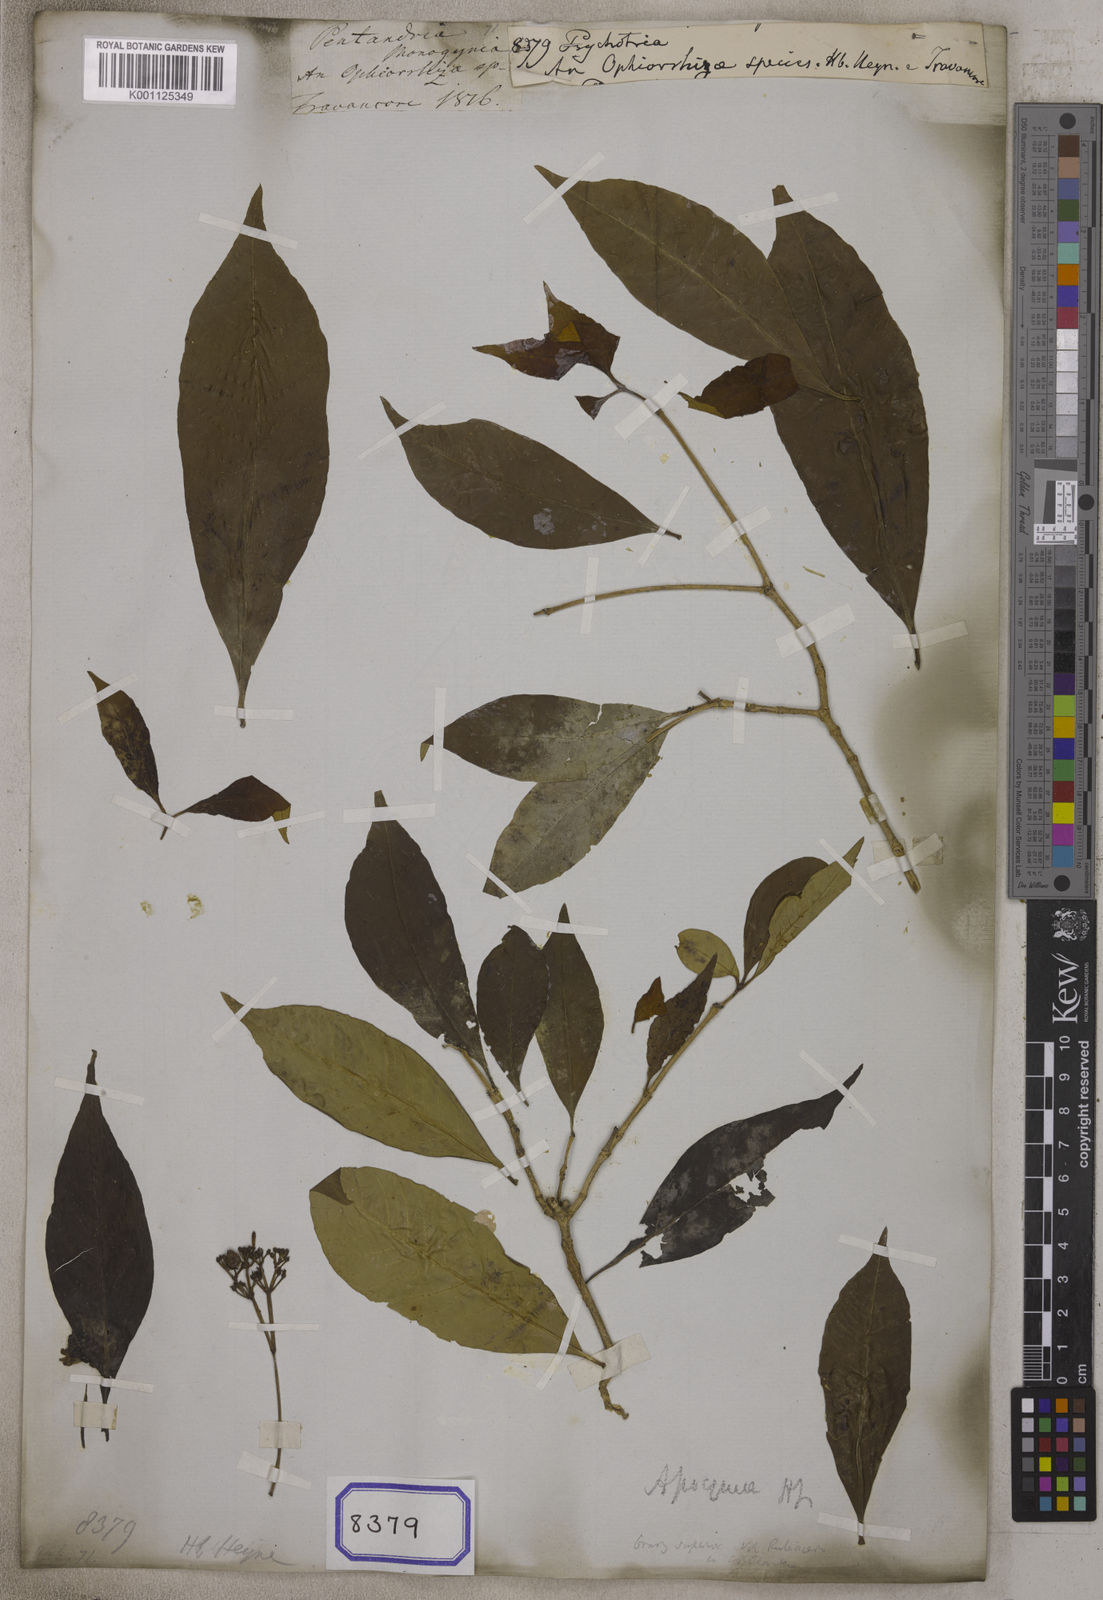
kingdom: Plantae
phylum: Tracheophyta
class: Magnoliopsida
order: Gentianales
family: Rubiaceae
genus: Psychotria
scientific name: Psychotria
